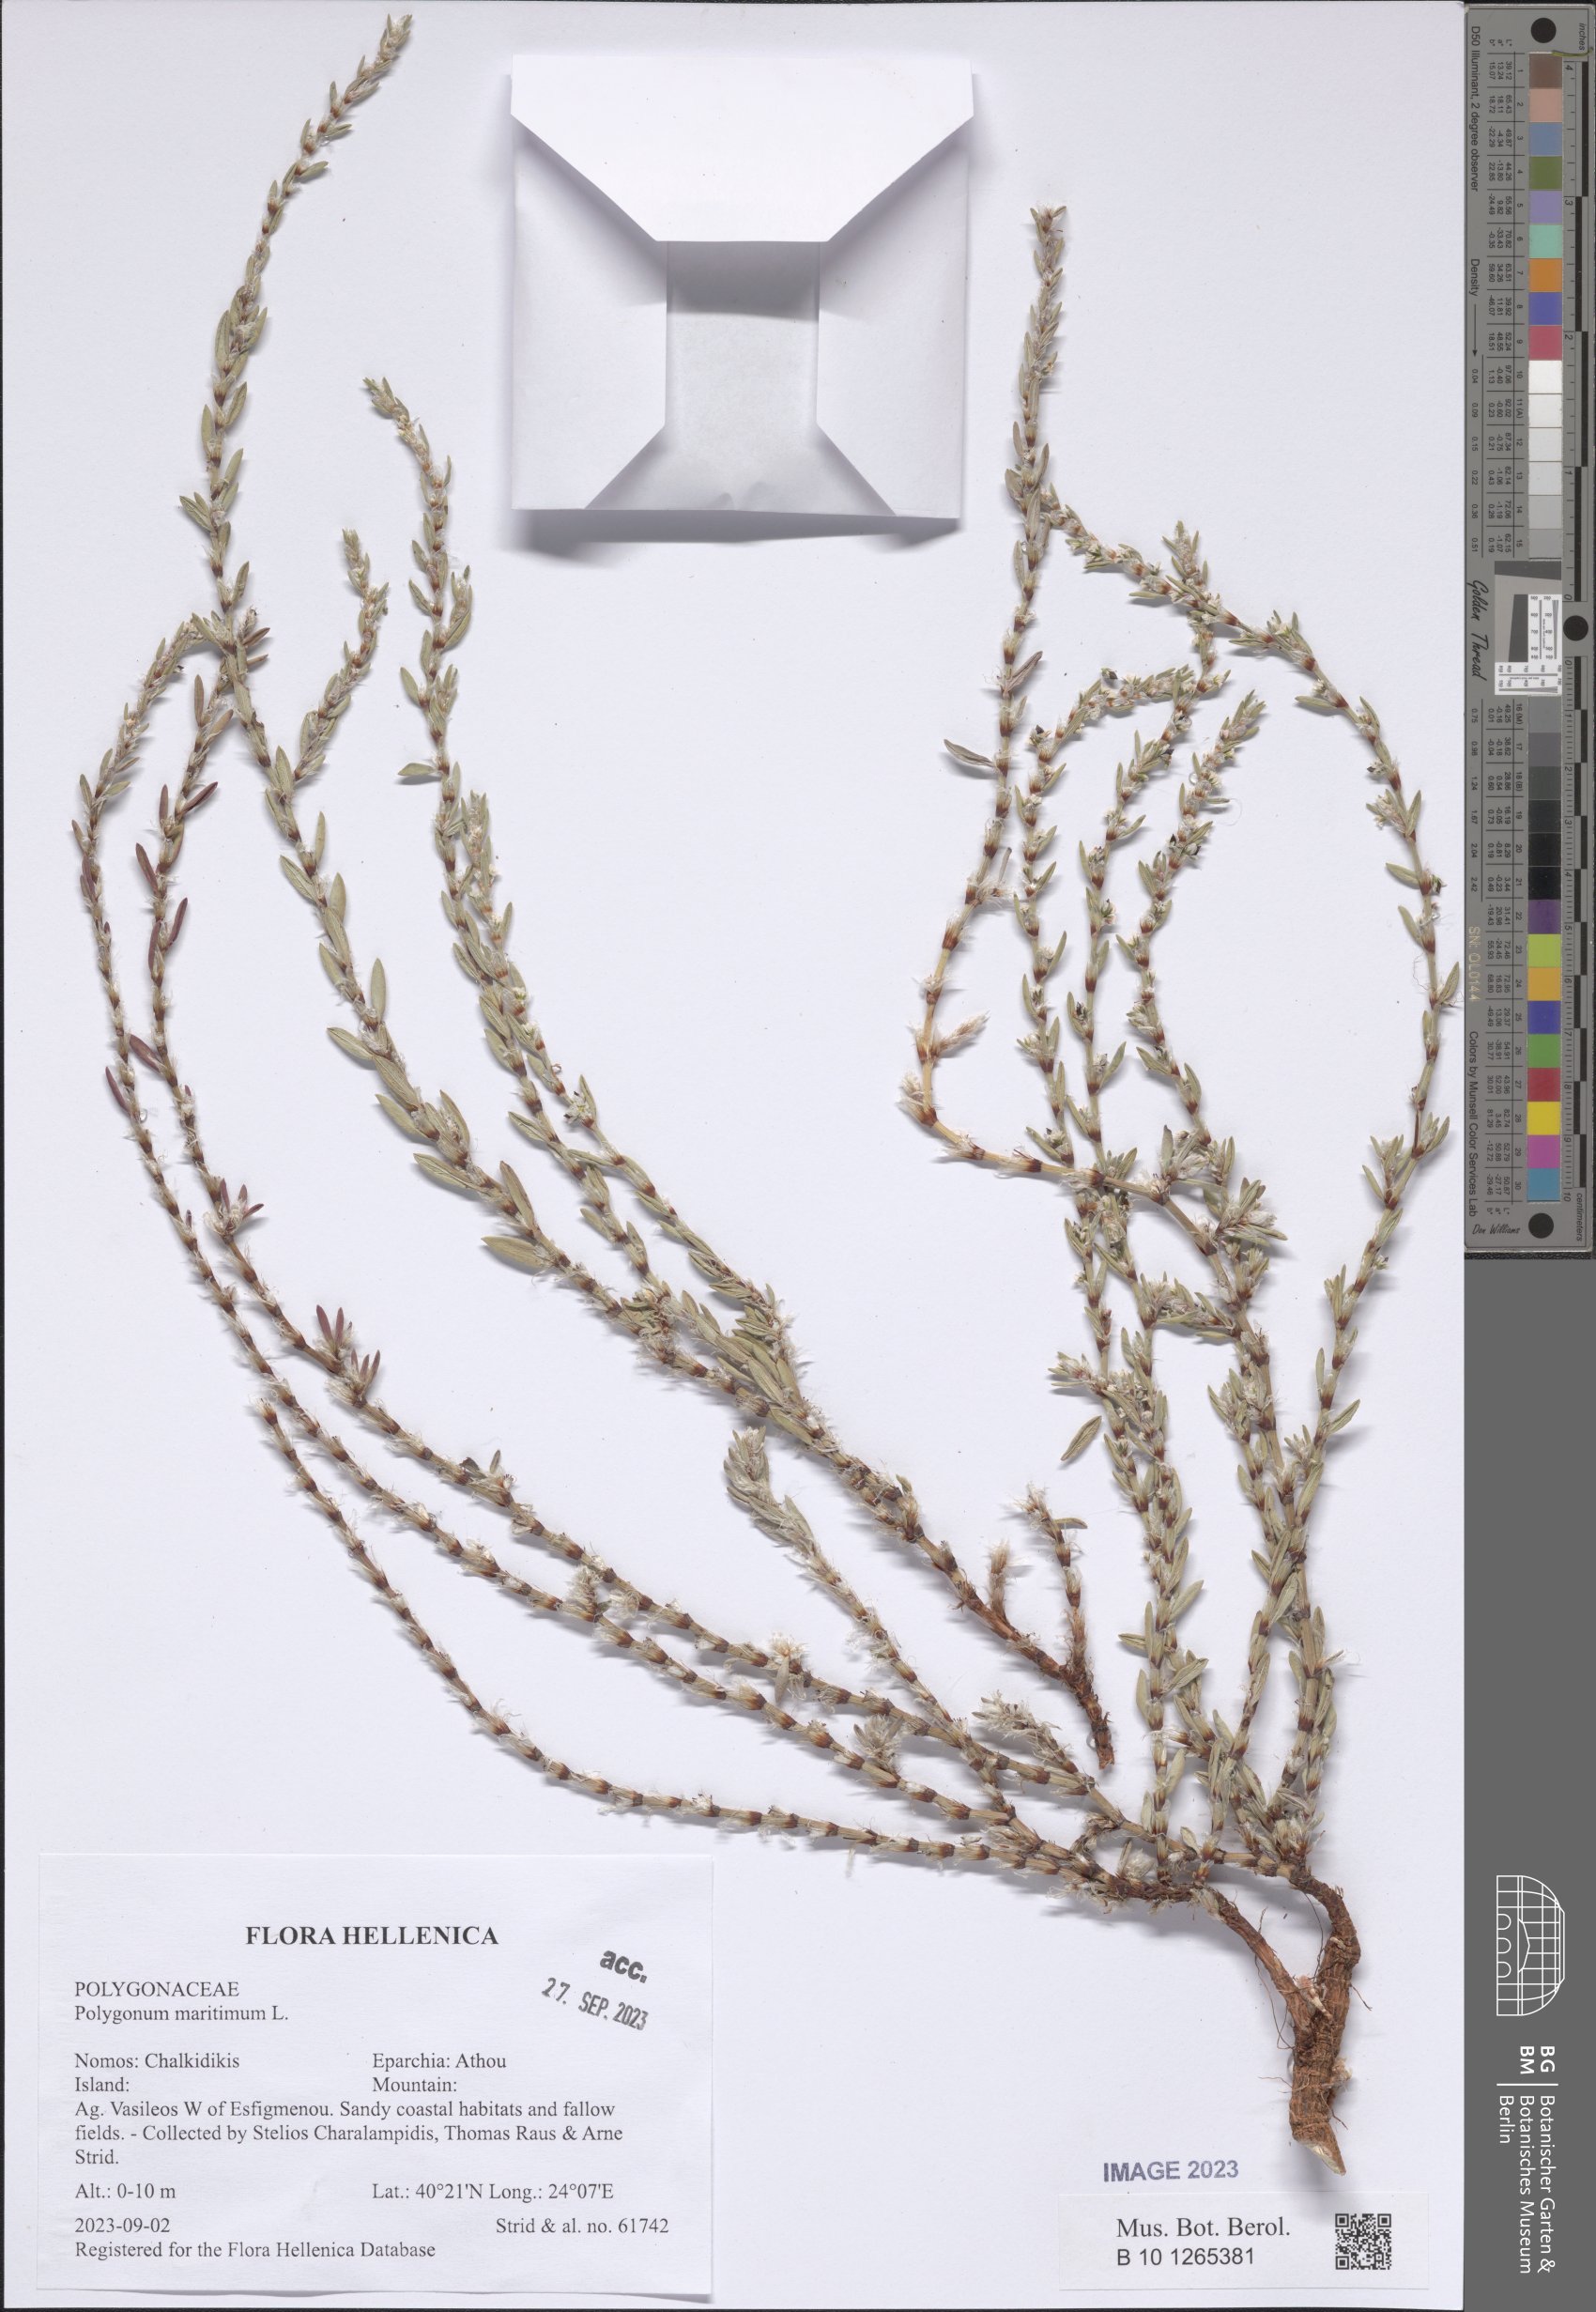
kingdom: Plantae
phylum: Tracheophyta
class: Magnoliopsida
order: Caryophyllales
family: Polygonaceae
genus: Polygonum
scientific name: Polygonum maritimum
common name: Sea knotgrass
